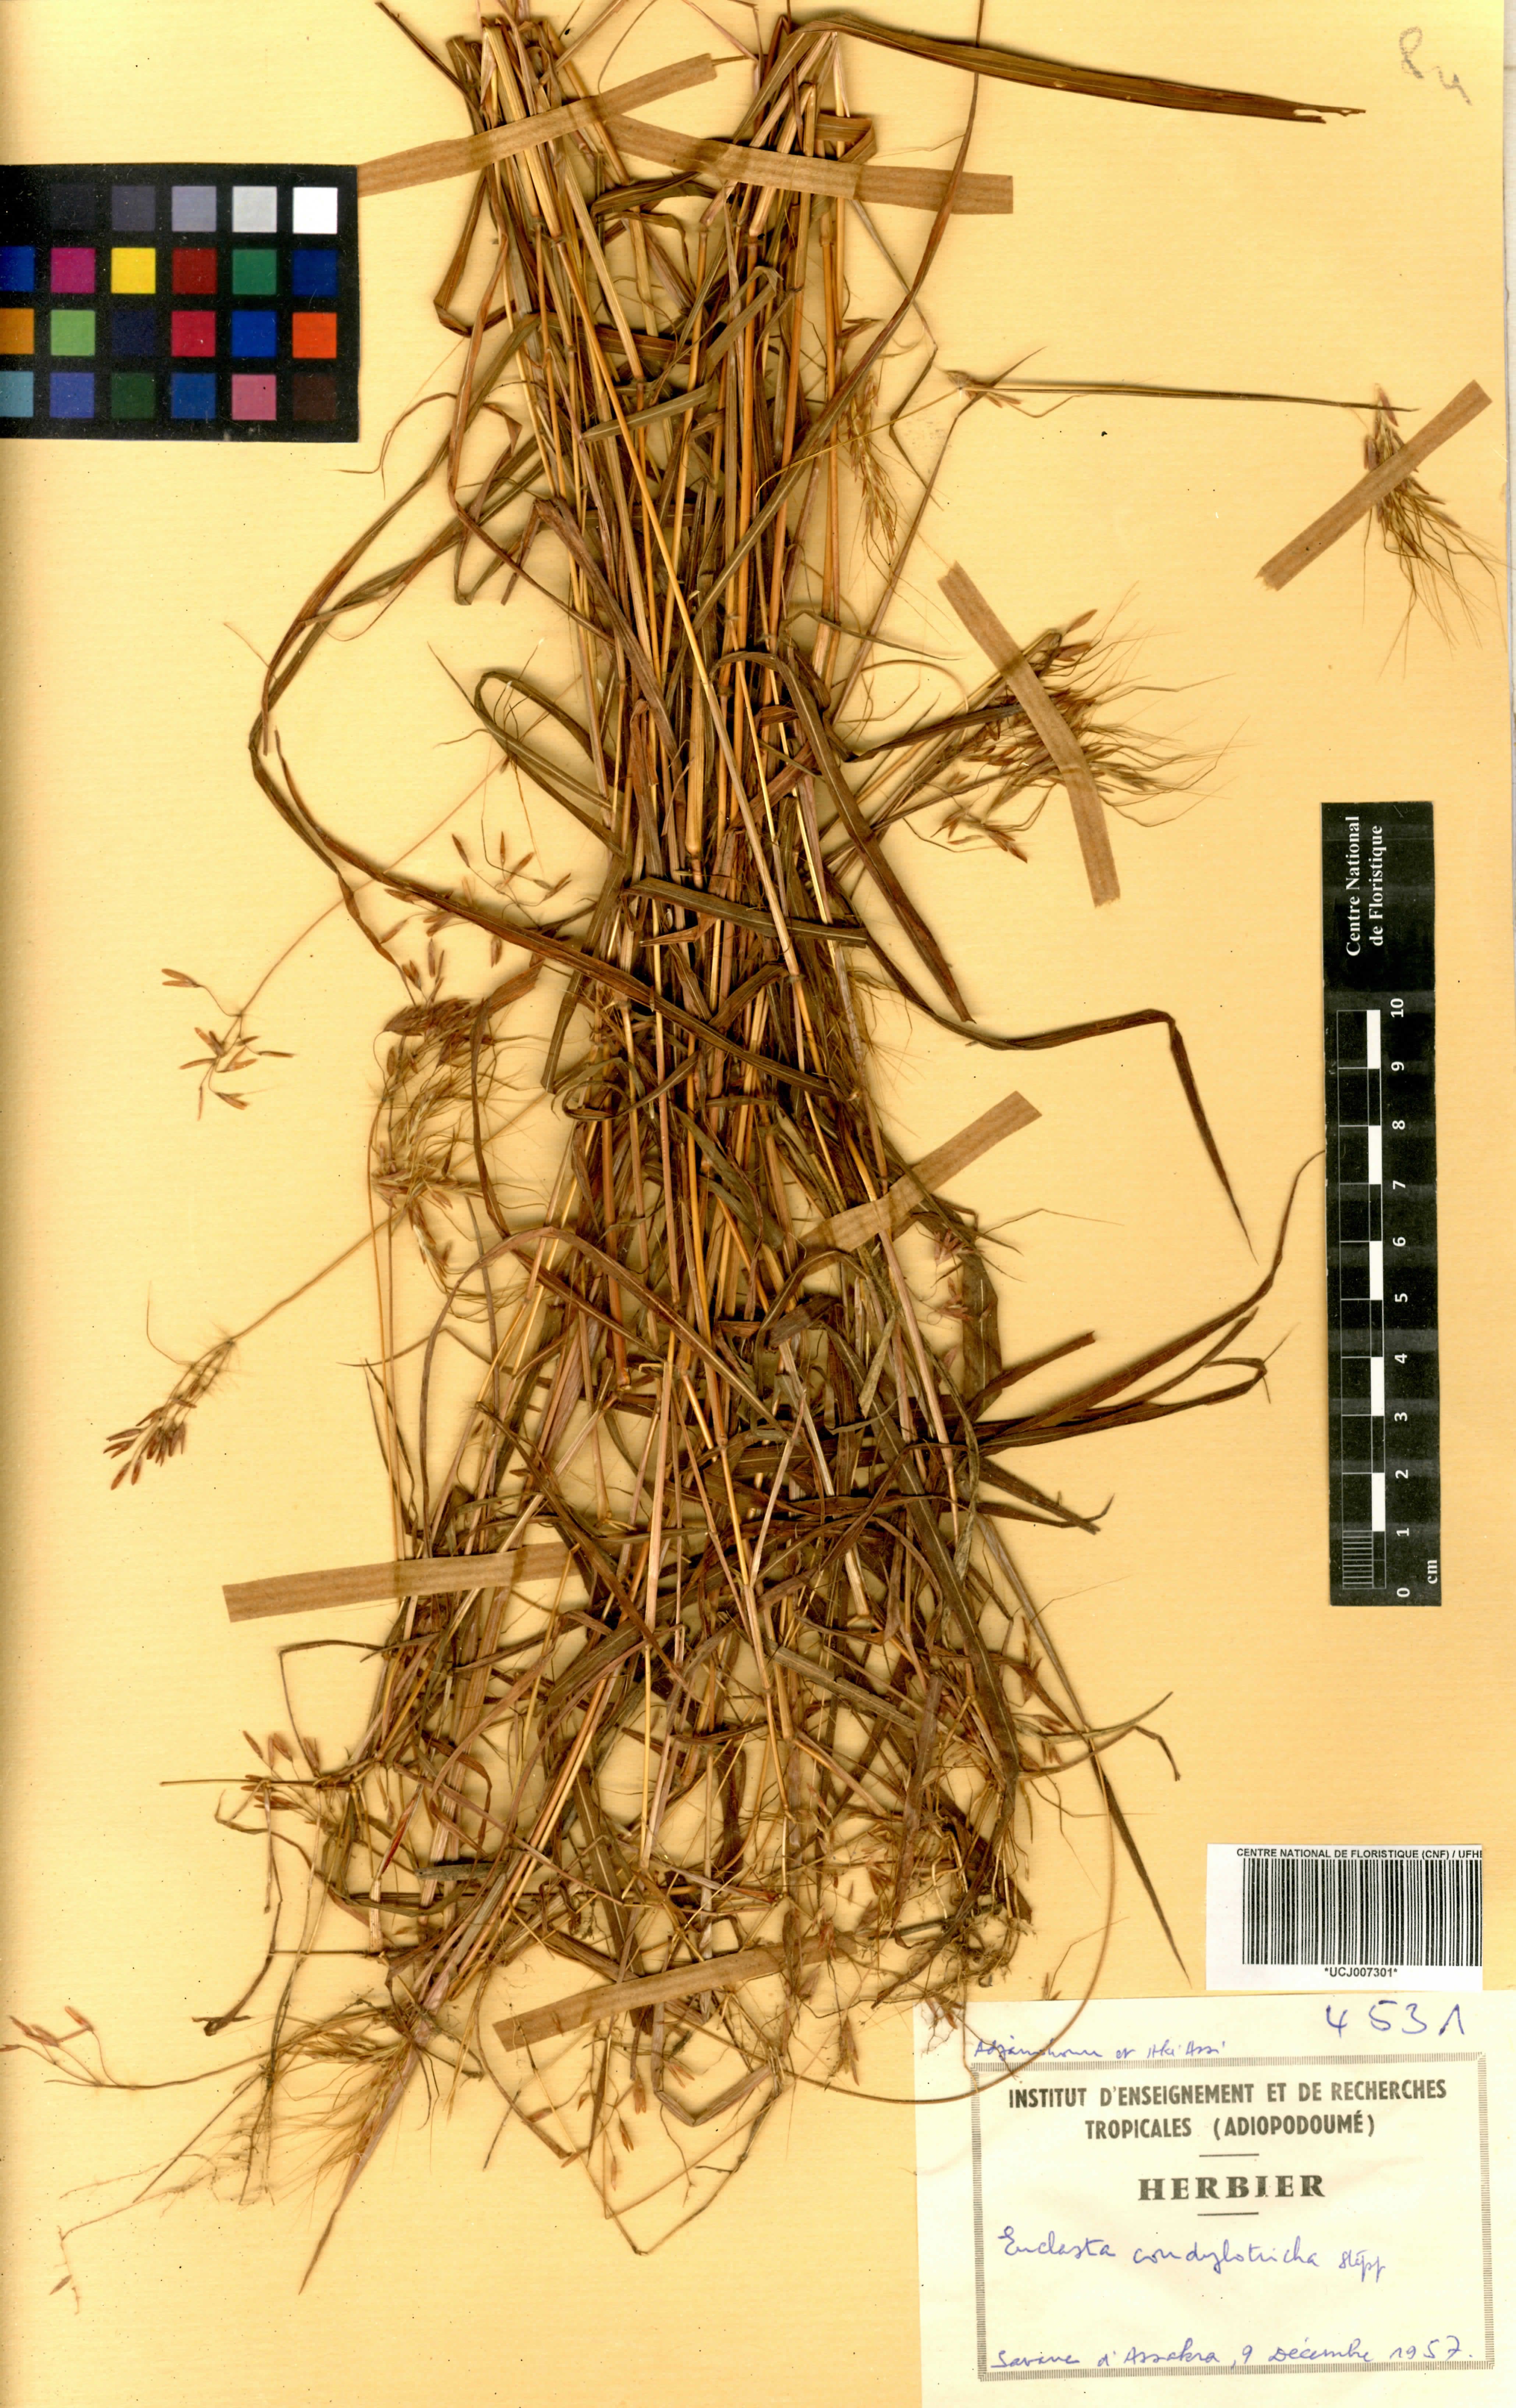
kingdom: Plantae
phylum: Tracheophyta
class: Liliopsida
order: Poales
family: Poaceae
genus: Euclasta
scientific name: Euclasta condylotricha
